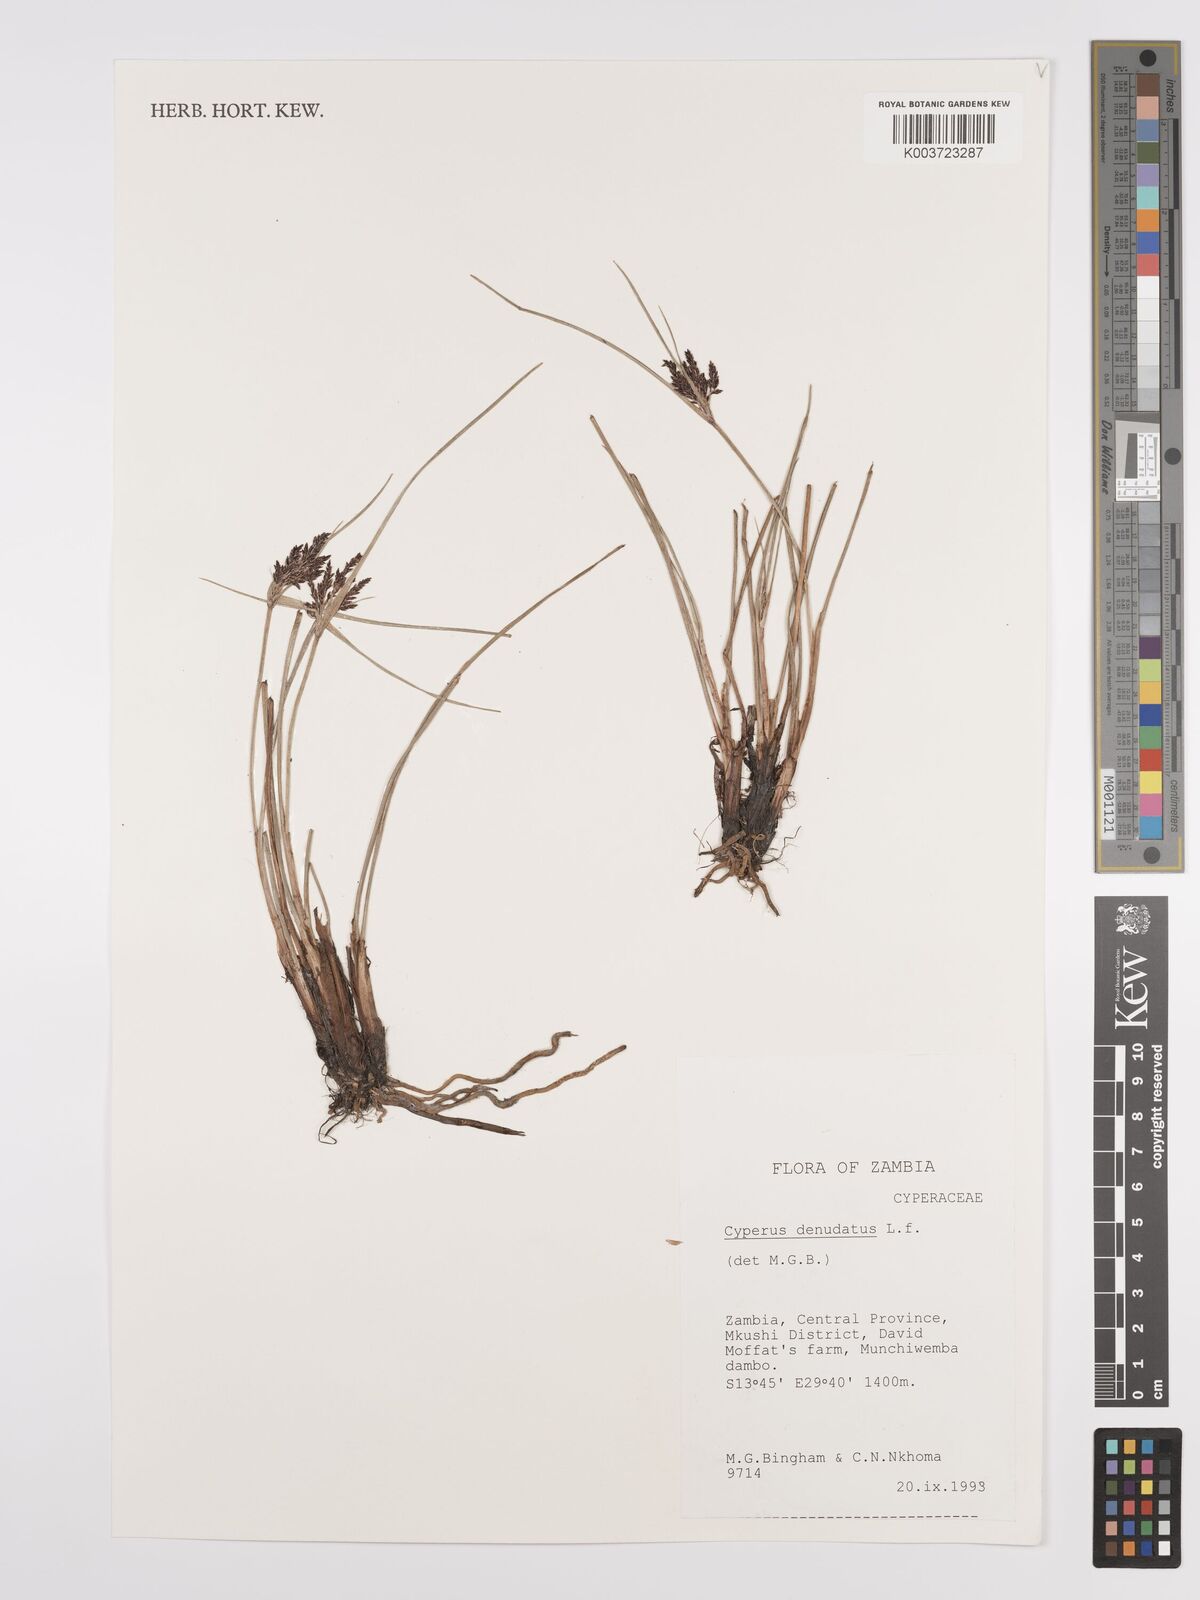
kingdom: Plantae
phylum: Tracheophyta
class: Liliopsida
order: Poales
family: Cyperaceae
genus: Cyperus
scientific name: Cyperus denudatus
